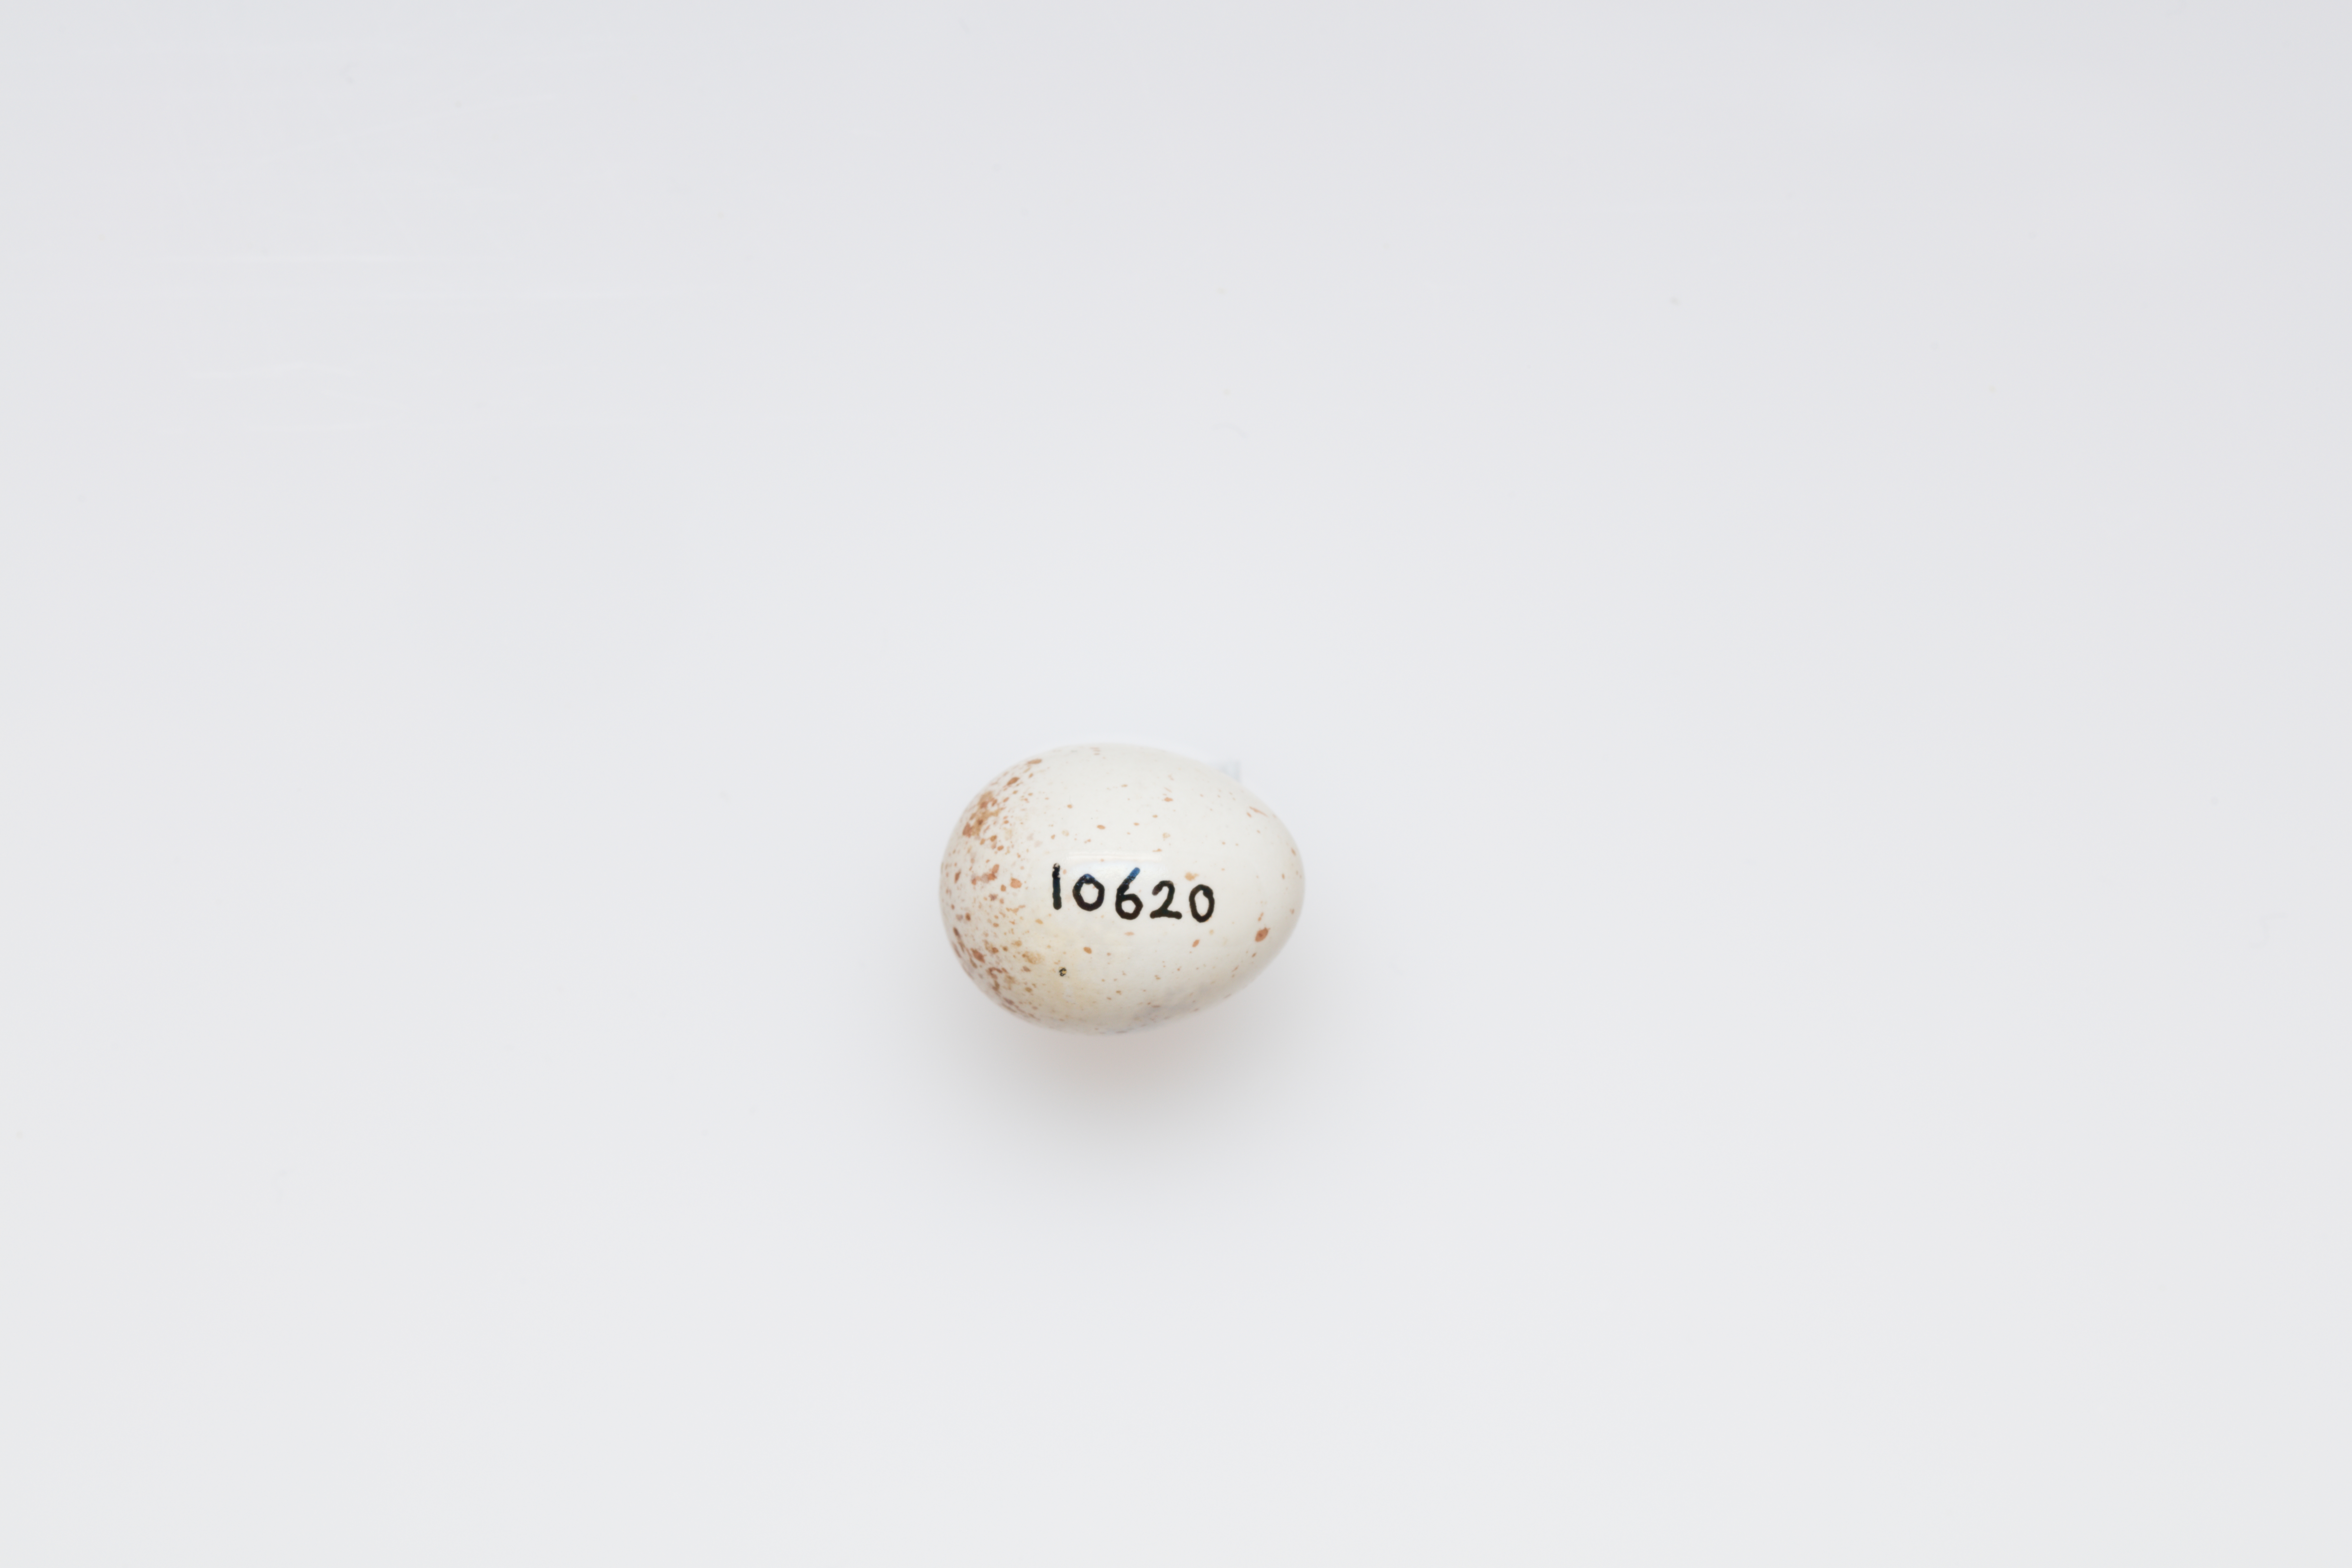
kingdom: Animalia
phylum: Chordata
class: Aves
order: Passeriformes
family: Certhiidae
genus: Certhia
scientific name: Certhia familiaris
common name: Eurasian treecreeper
